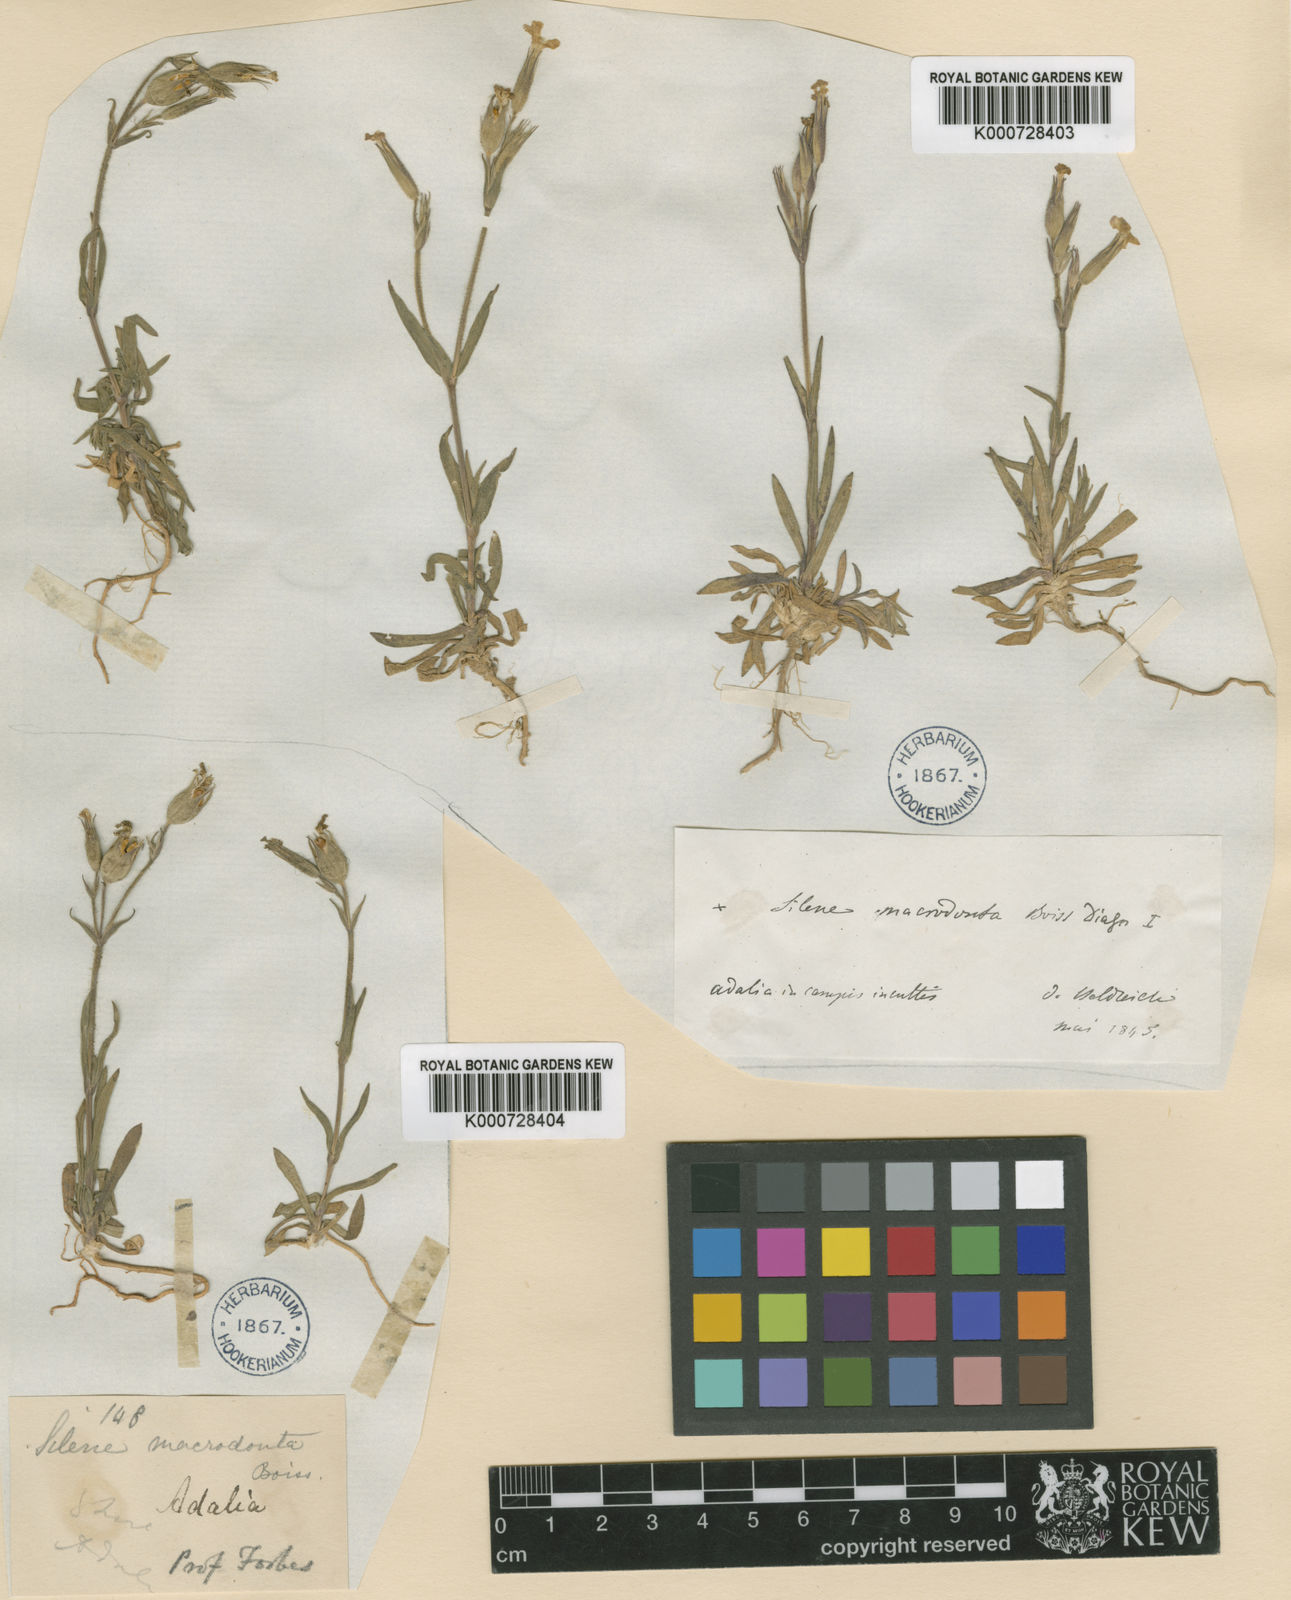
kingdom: Plantae
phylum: Tracheophyta
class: Magnoliopsida
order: Caryophyllales
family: Caryophyllaceae
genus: Silene
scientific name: Silene macrodonta
